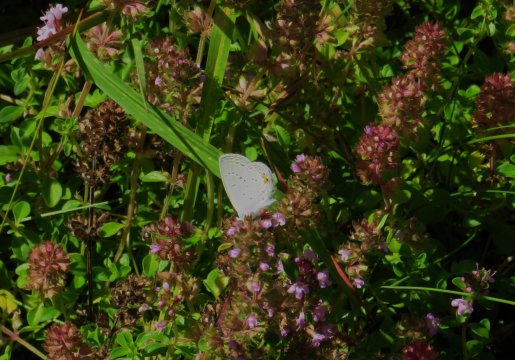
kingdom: Animalia
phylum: Arthropoda
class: Insecta
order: Lepidoptera
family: Lycaenidae
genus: Elkalyce
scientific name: Elkalyce comyntas
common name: Eastern Tailed-Blue
